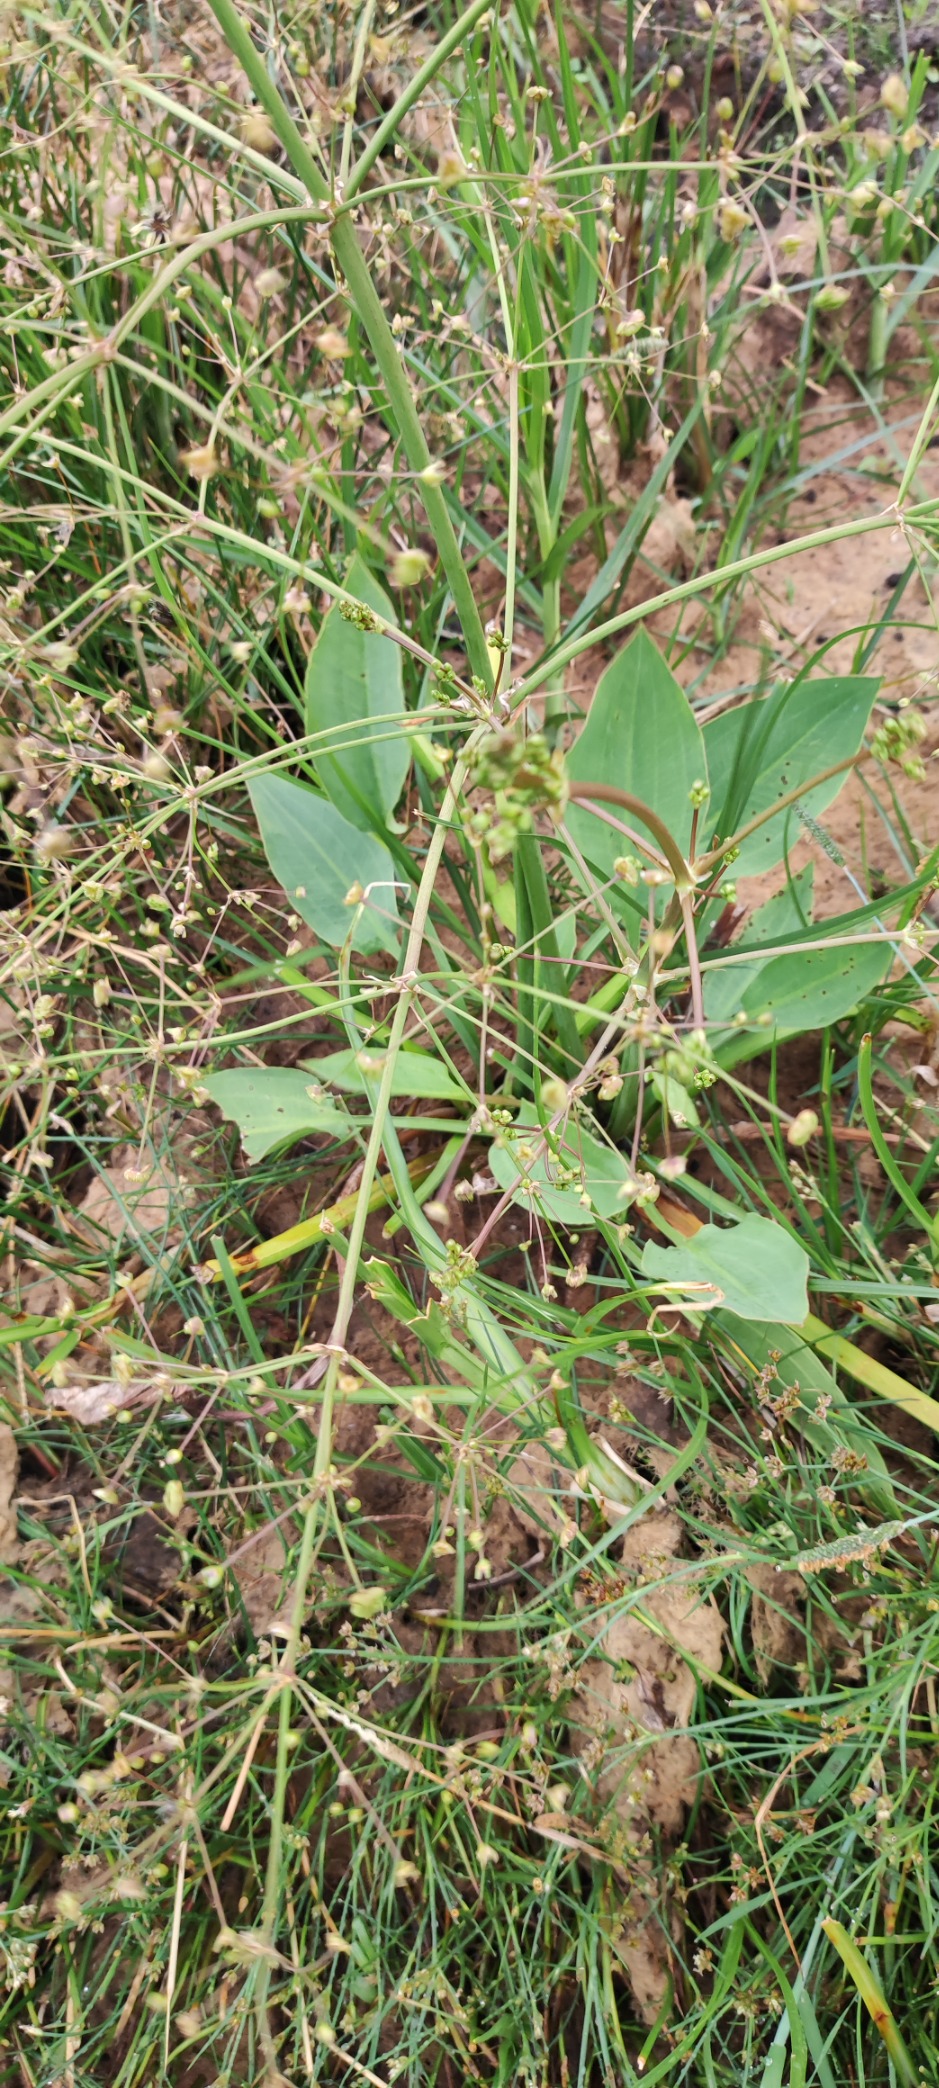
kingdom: Plantae
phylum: Tracheophyta
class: Liliopsida
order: Alismatales
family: Alismataceae
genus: Alisma
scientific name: Alisma plantago-aquatica
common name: Vejbred-skeblad
